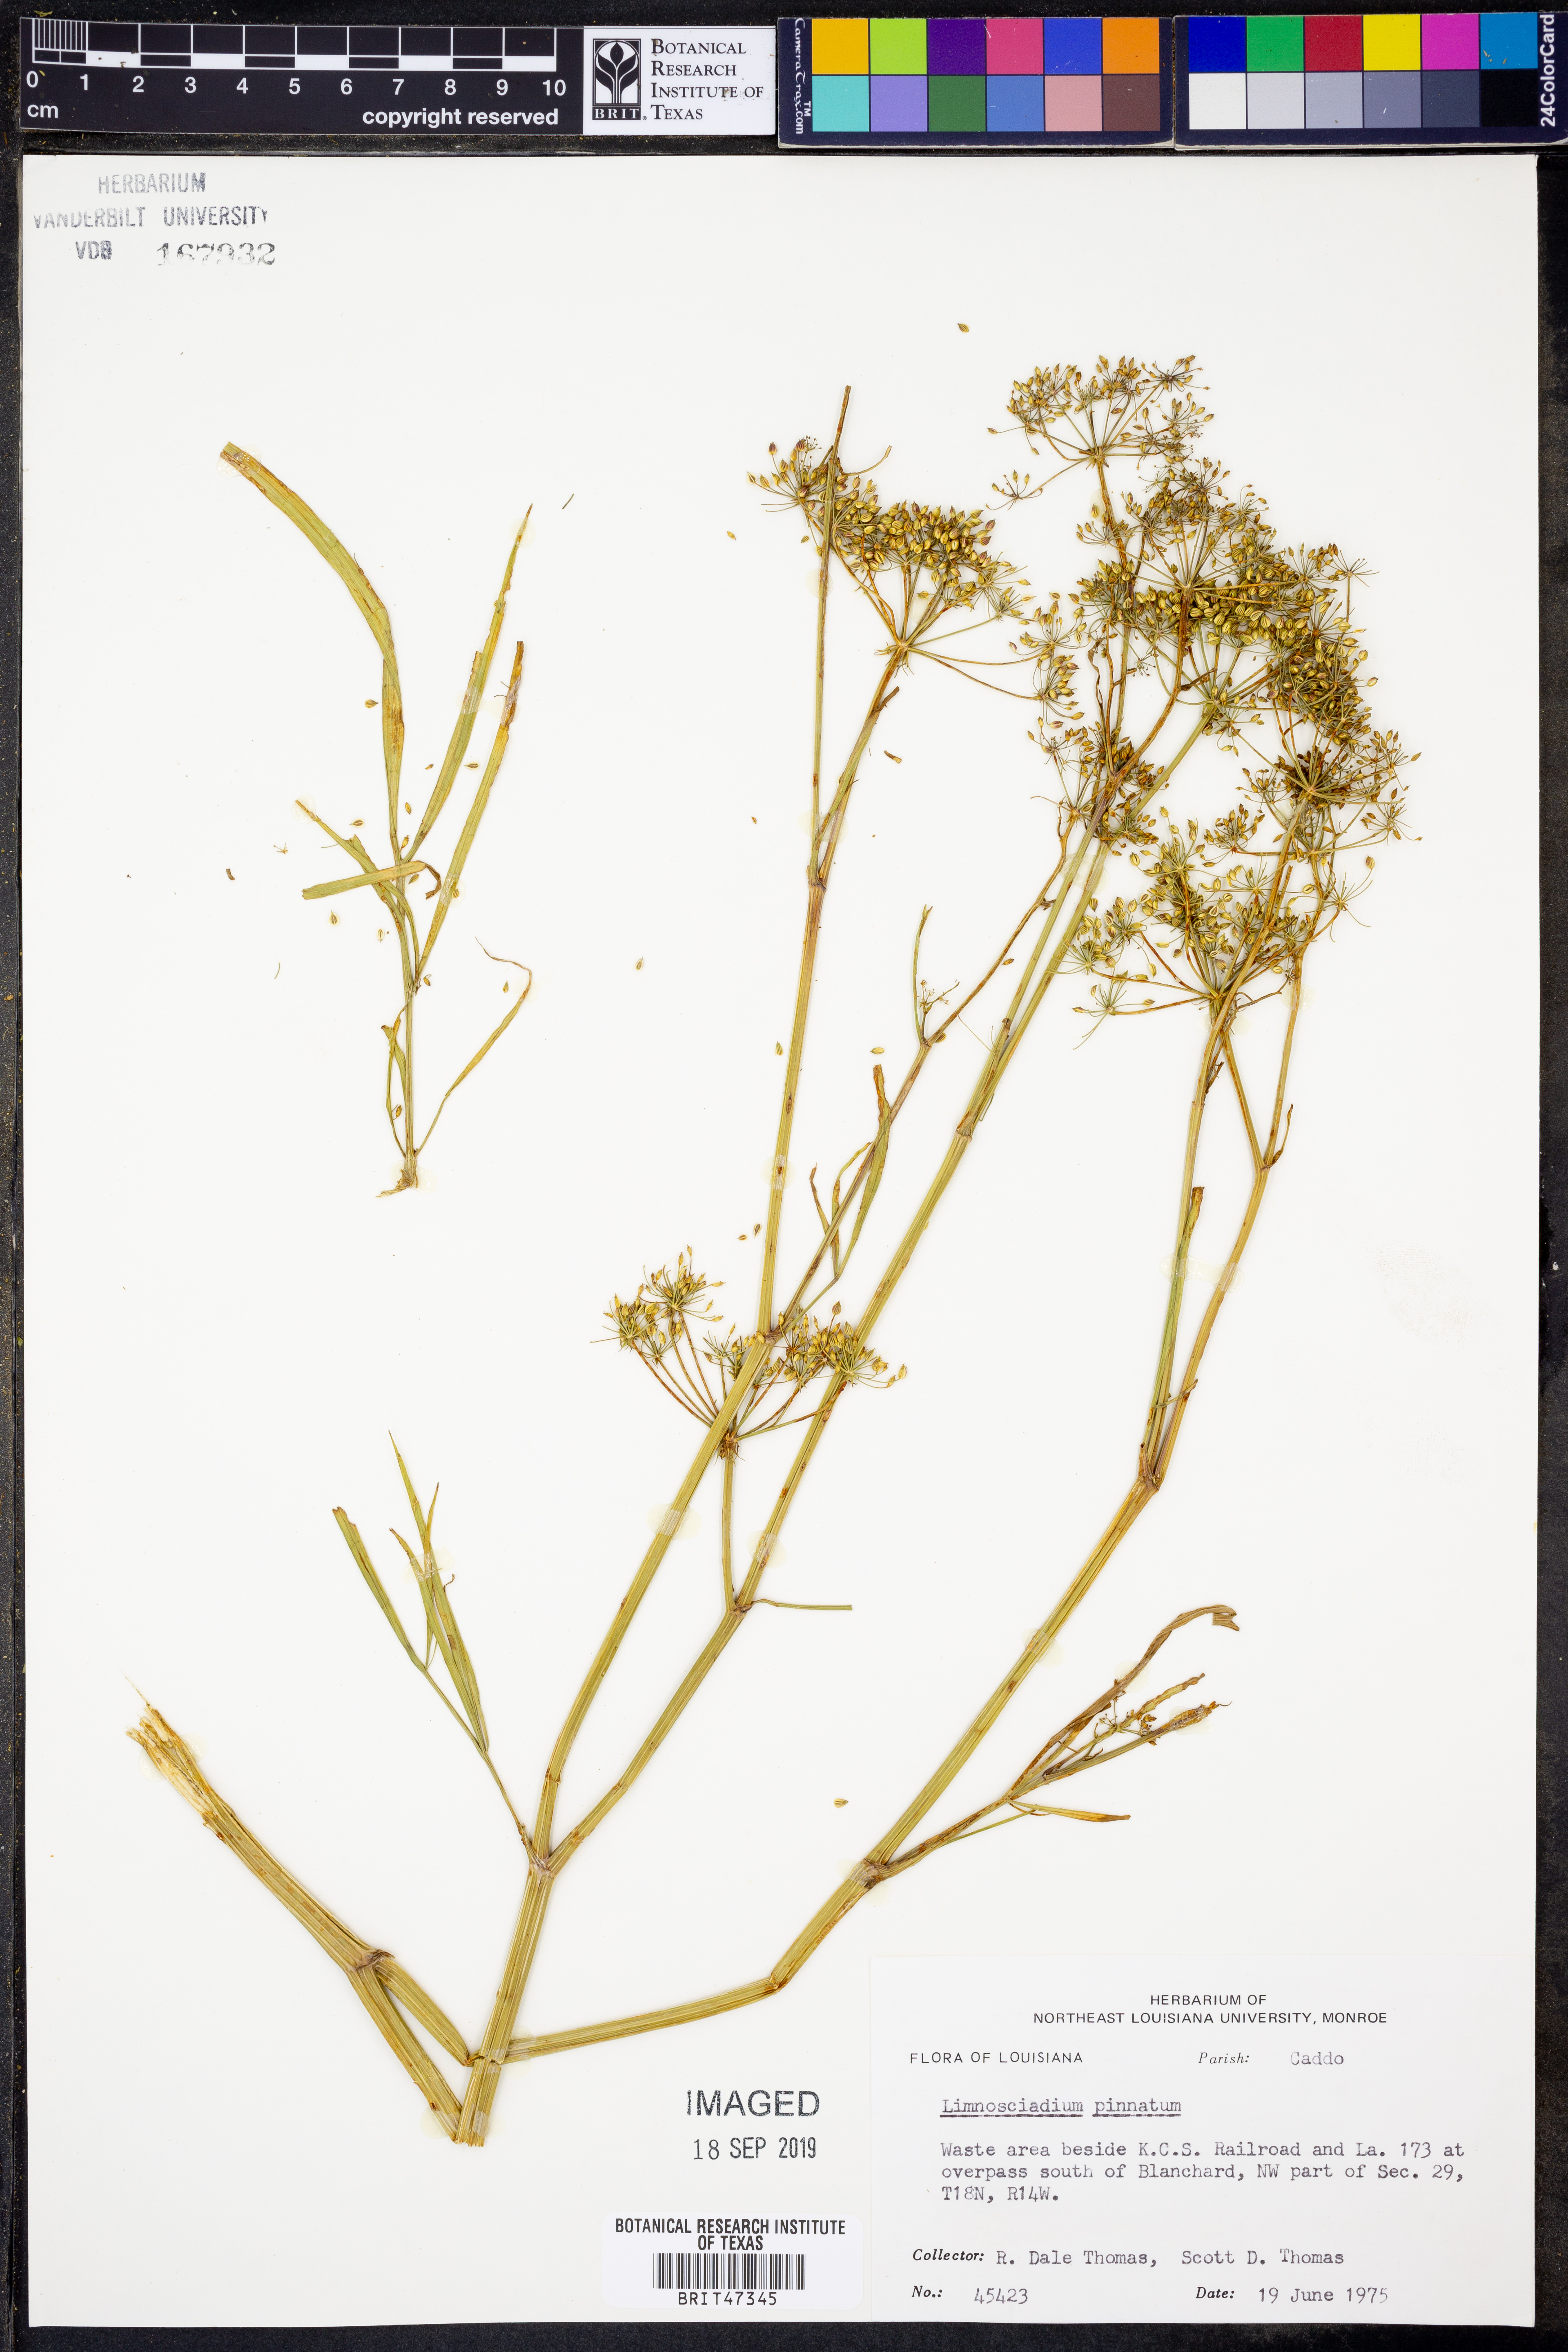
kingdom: Plantae
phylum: Tracheophyta
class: Magnoliopsida
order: Apiales
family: Apiaceae
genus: Limnosciadium
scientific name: Limnosciadium pinnatum
